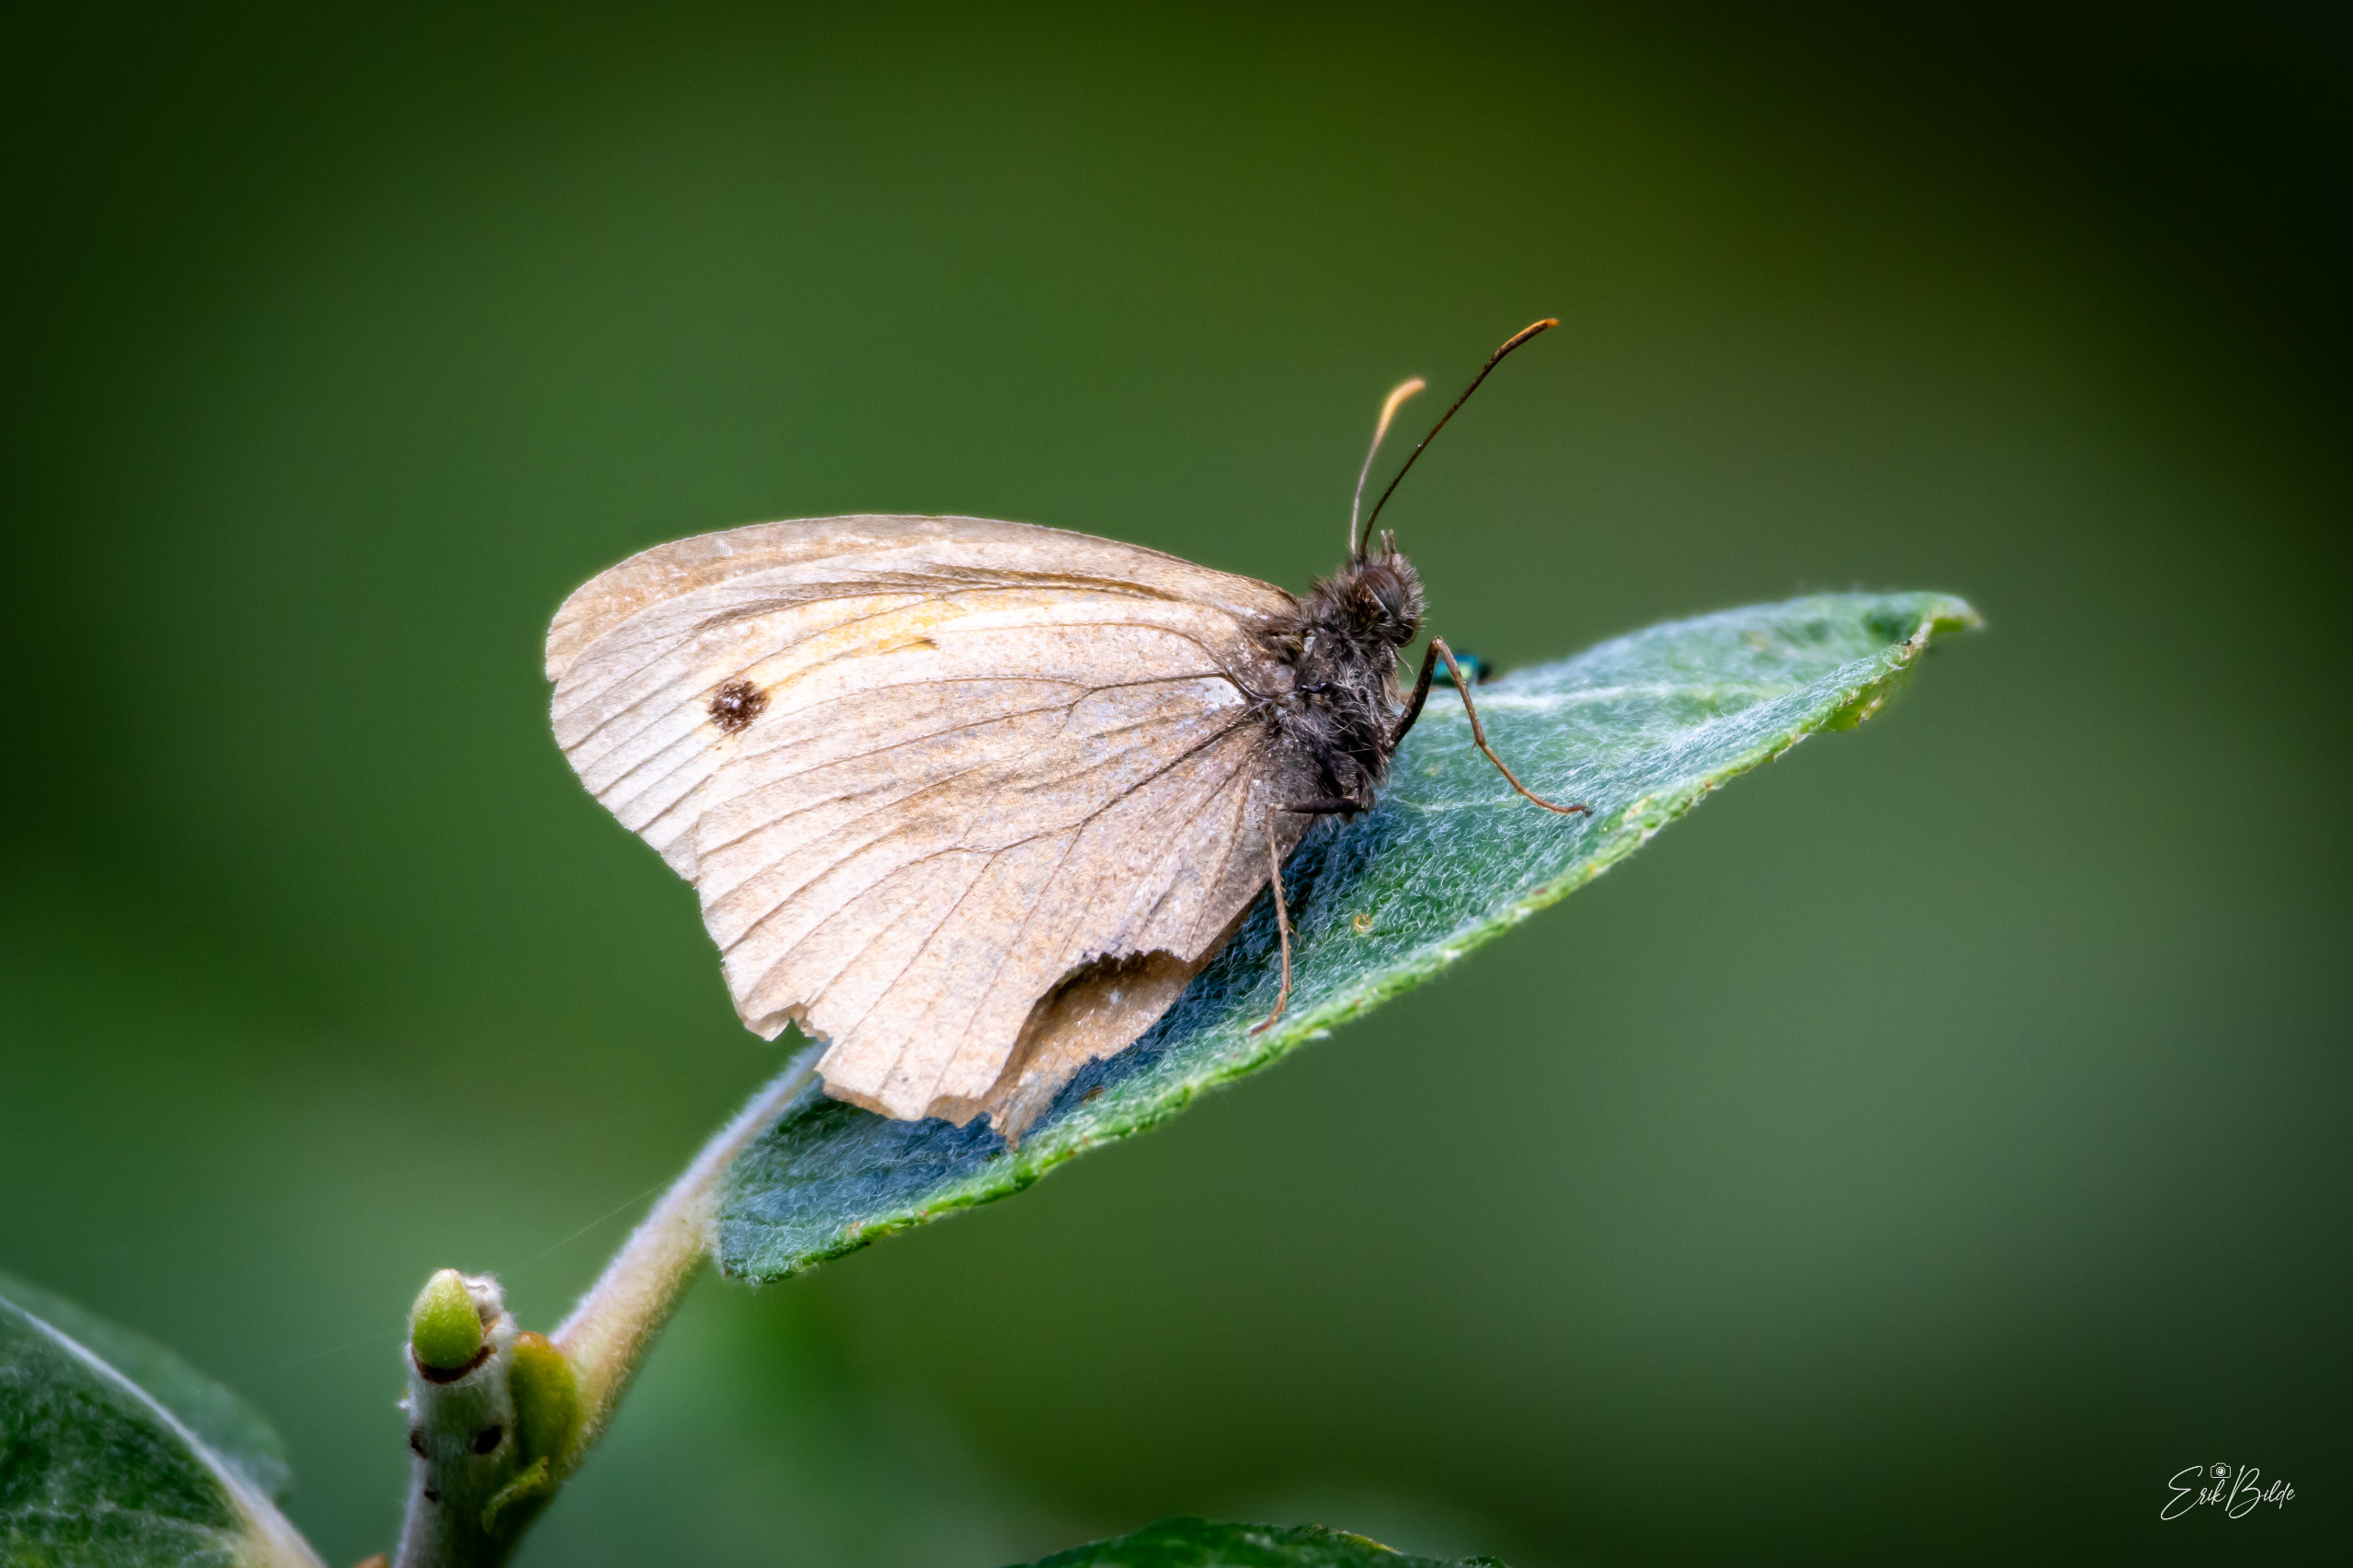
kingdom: Animalia
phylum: Arthropoda
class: Insecta
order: Lepidoptera
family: Nymphalidae
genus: Maniola
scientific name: Maniola jurtina
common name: Græsrandøje
